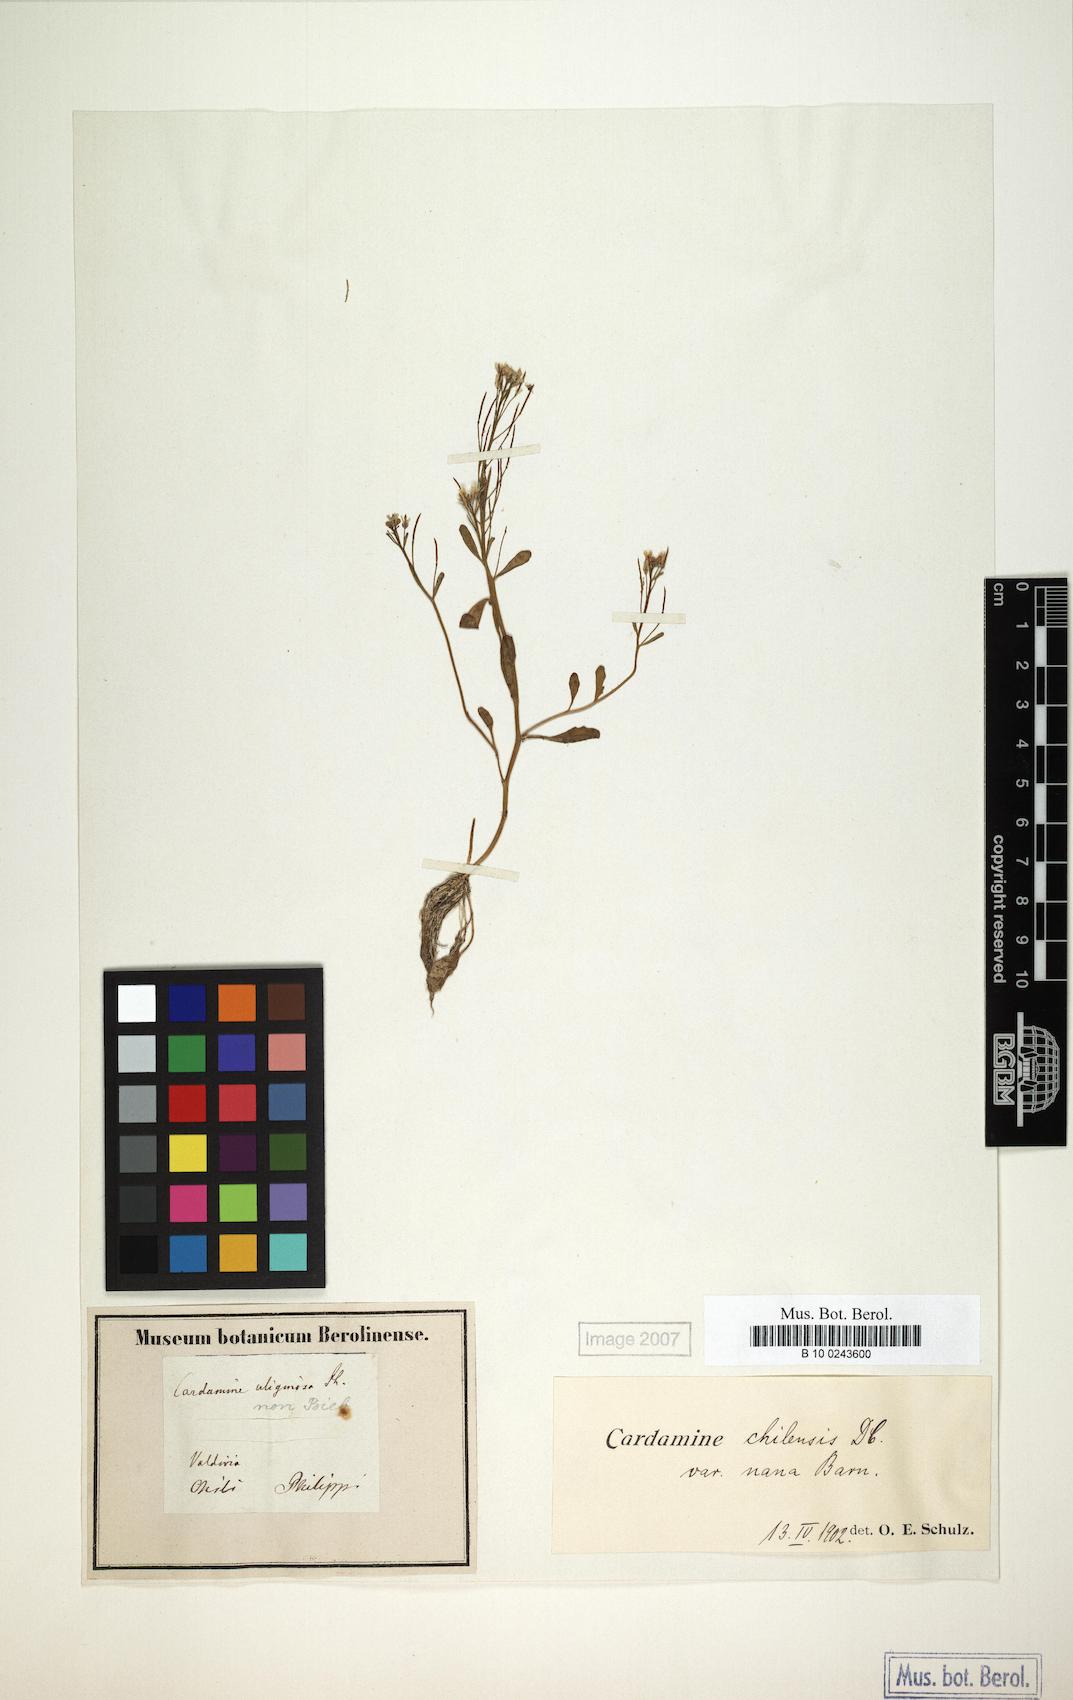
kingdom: Plantae
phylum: Tracheophyta
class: Magnoliopsida
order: Brassicales
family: Brassicaceae
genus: Cardamine
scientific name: Cardamine chilensis
